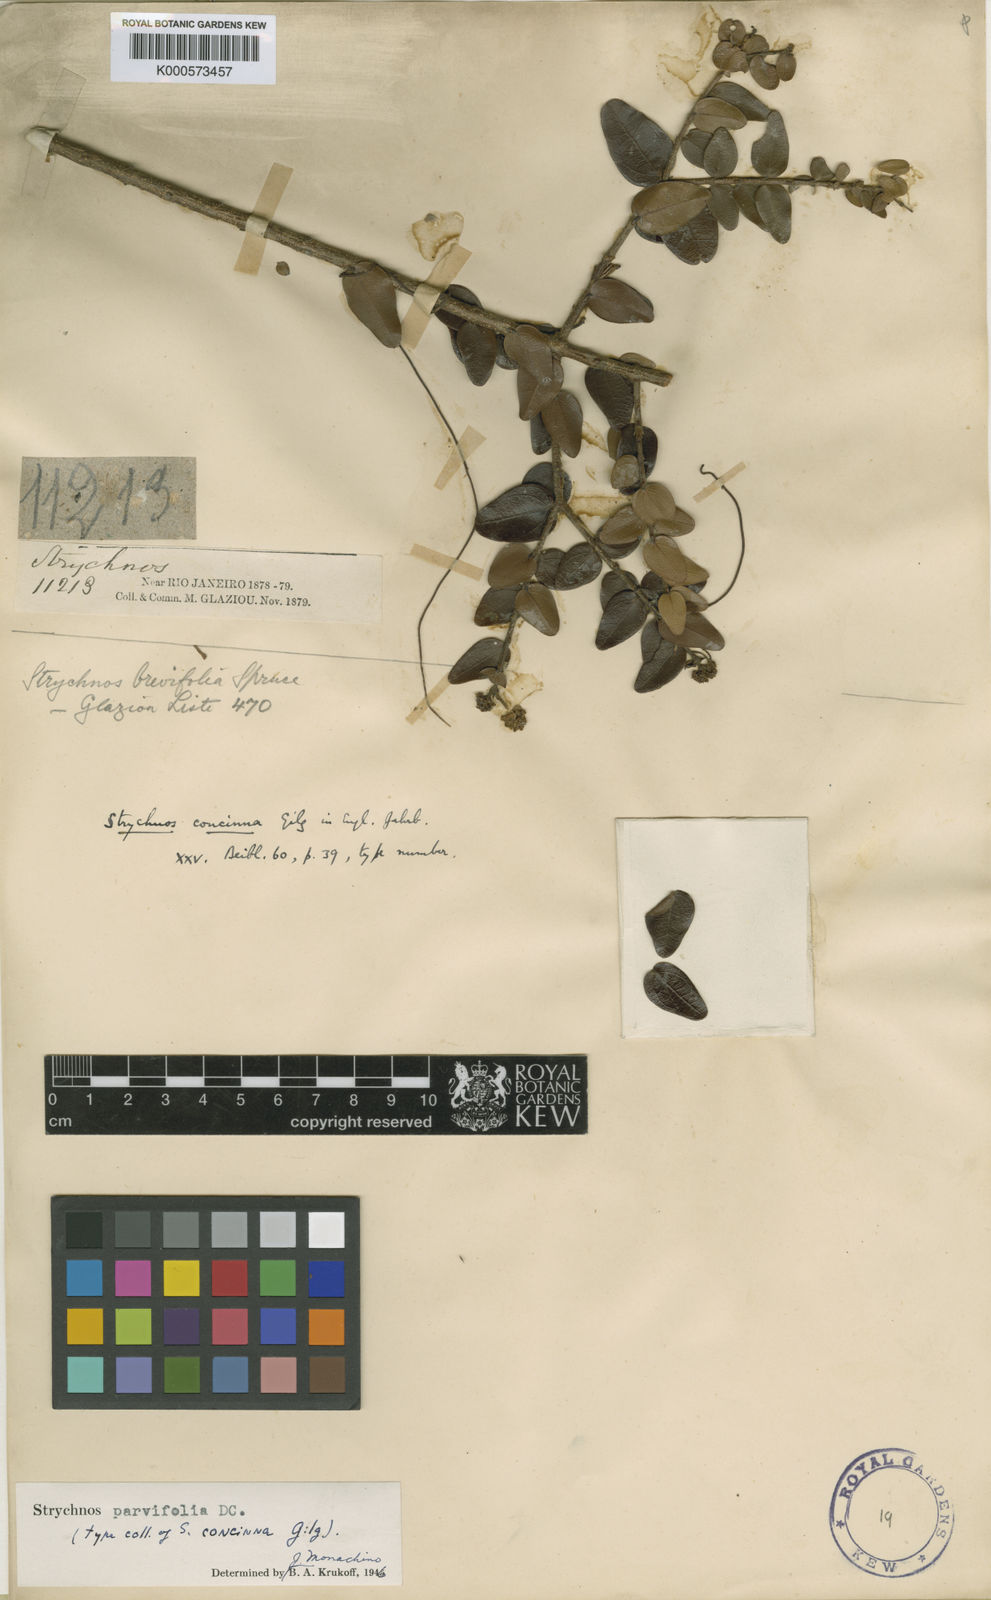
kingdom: Plantae
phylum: Tracheophyta
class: Magnoliopsida
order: Gentianales
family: Loganiaceae
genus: Strychnos
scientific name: Strychnos parvifolia
